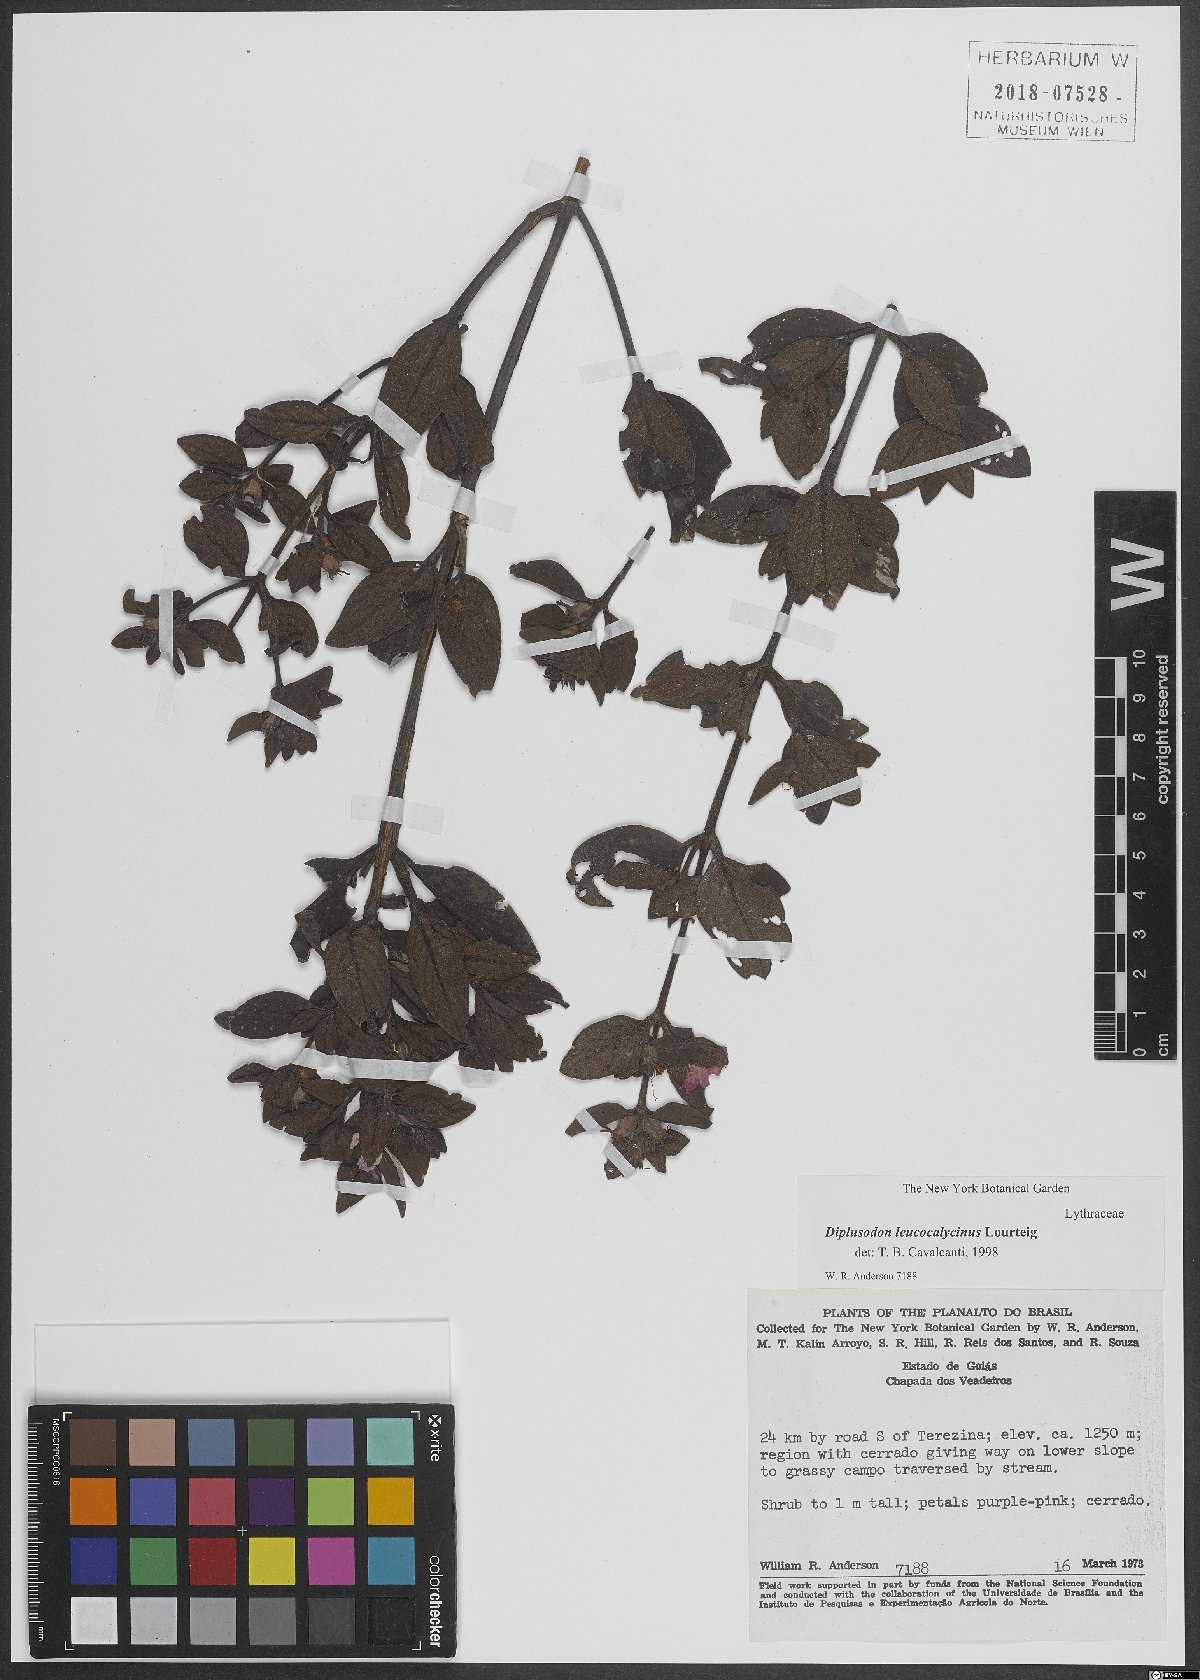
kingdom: Plantae
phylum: Tracheophyta
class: Magnoliopsida
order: Myrtales
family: Lythraceae
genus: Diplusodon
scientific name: Diplusodon leucocalycinus
